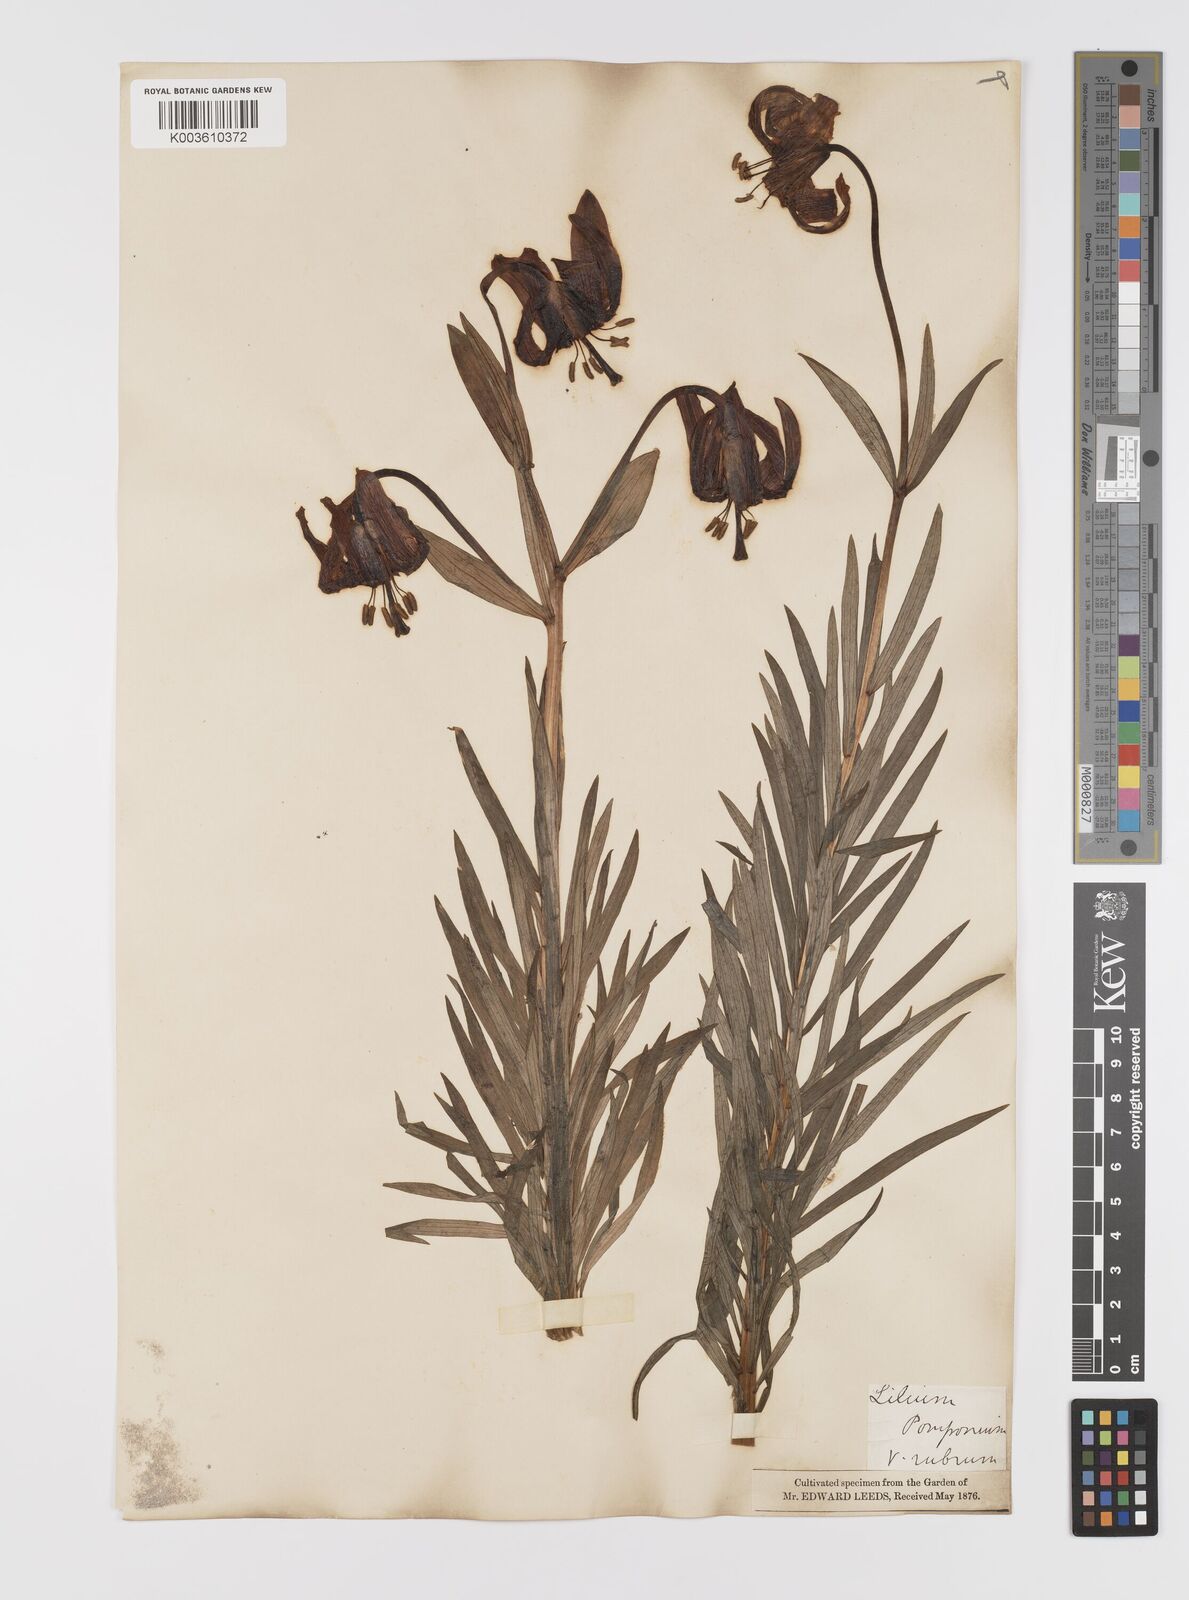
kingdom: Plantae
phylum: Tracheophyta
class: Liliopsida
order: Liliales
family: Liliaceae
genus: Lilium
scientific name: Lilium pyrenaicum
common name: Pyrenean lily
